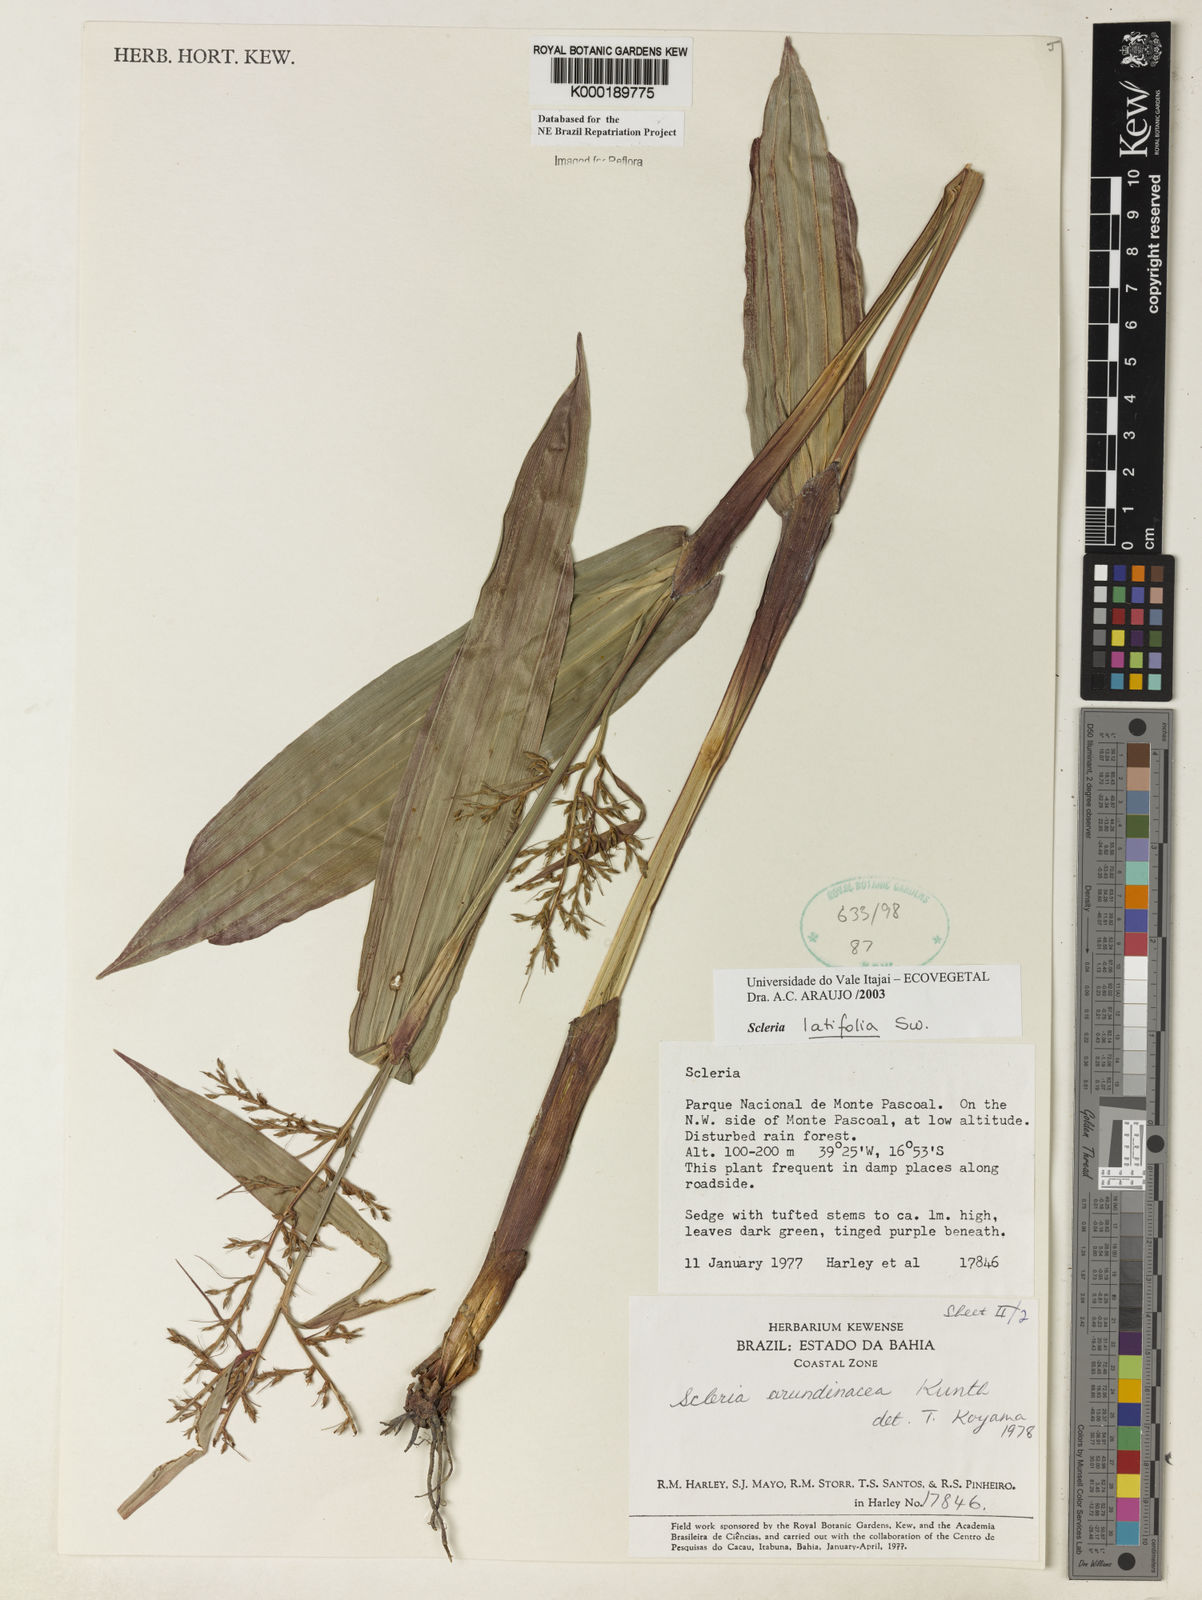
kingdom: Plantae
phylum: Tracheophyta
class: Liliopsida
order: Poales
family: Cyperaceae
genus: Scleria
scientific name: Scleria latifolia
